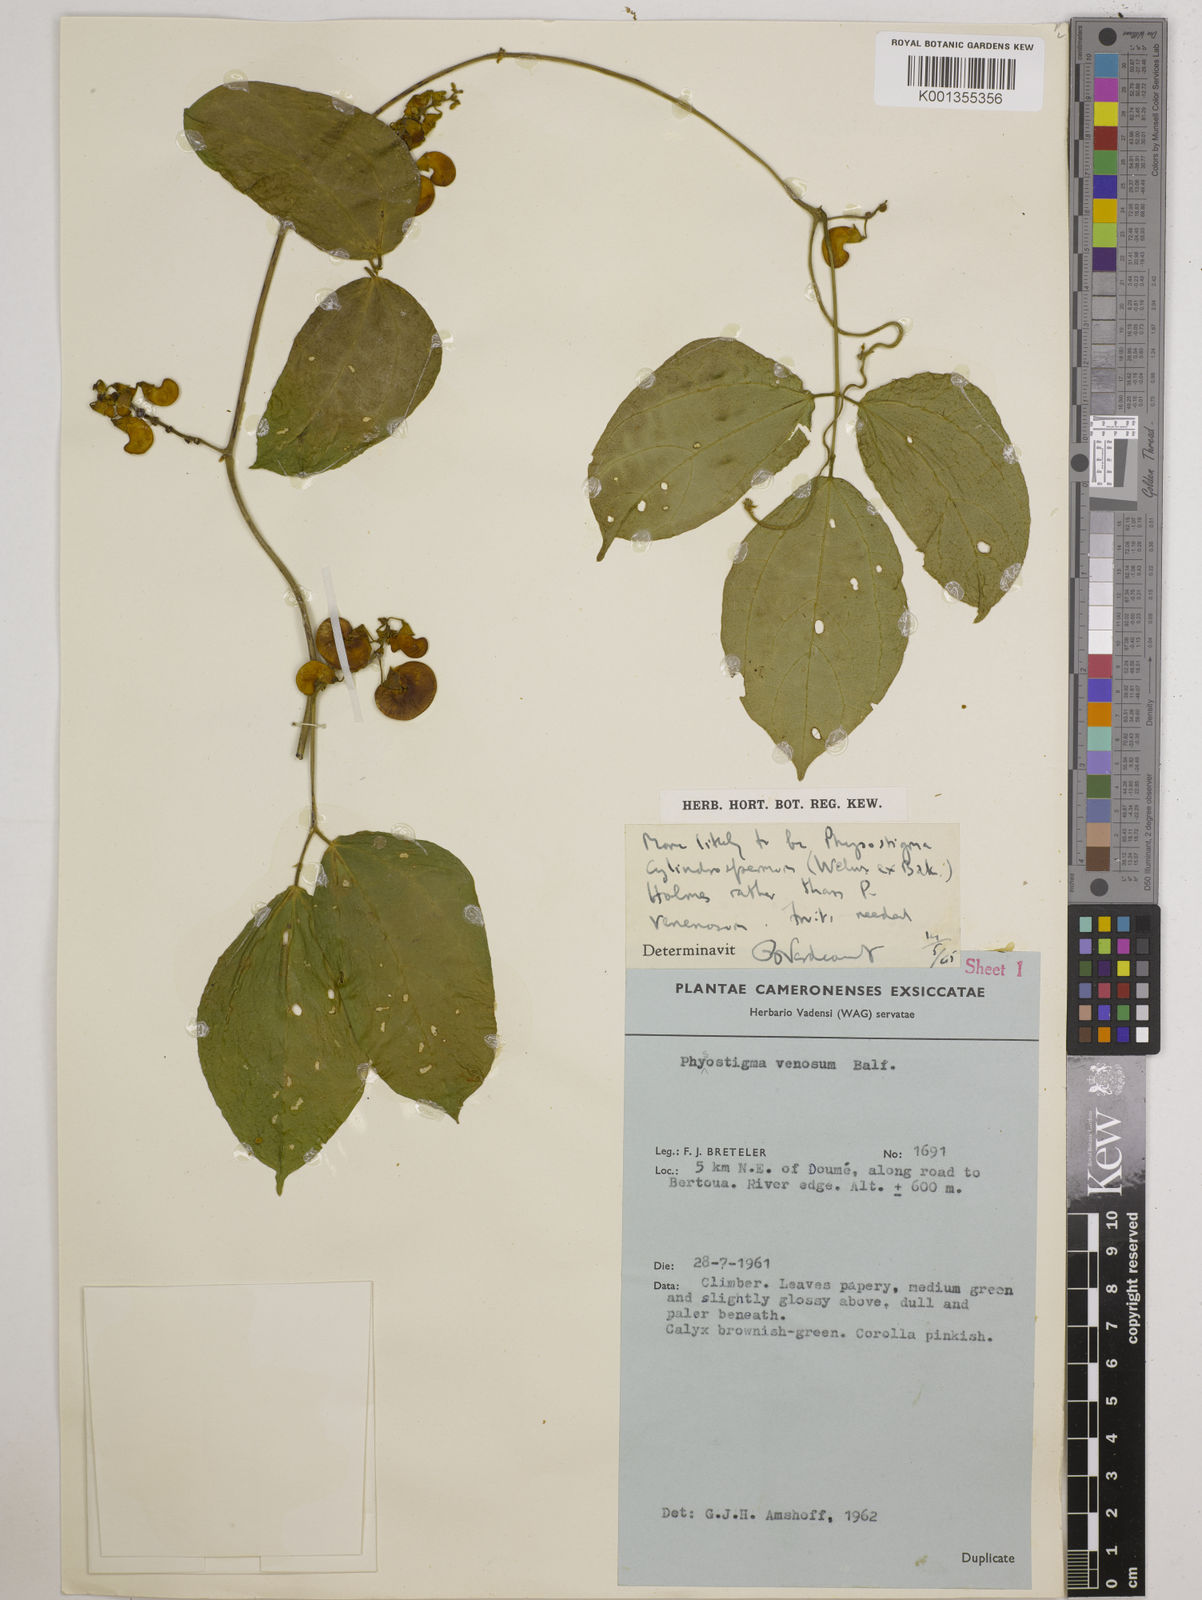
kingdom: Plantae
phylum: Tracheophyta
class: Magnoliopsida
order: Fabales
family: Fabaceae
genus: Physostigma
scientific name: Physostigma cylindrospermum
